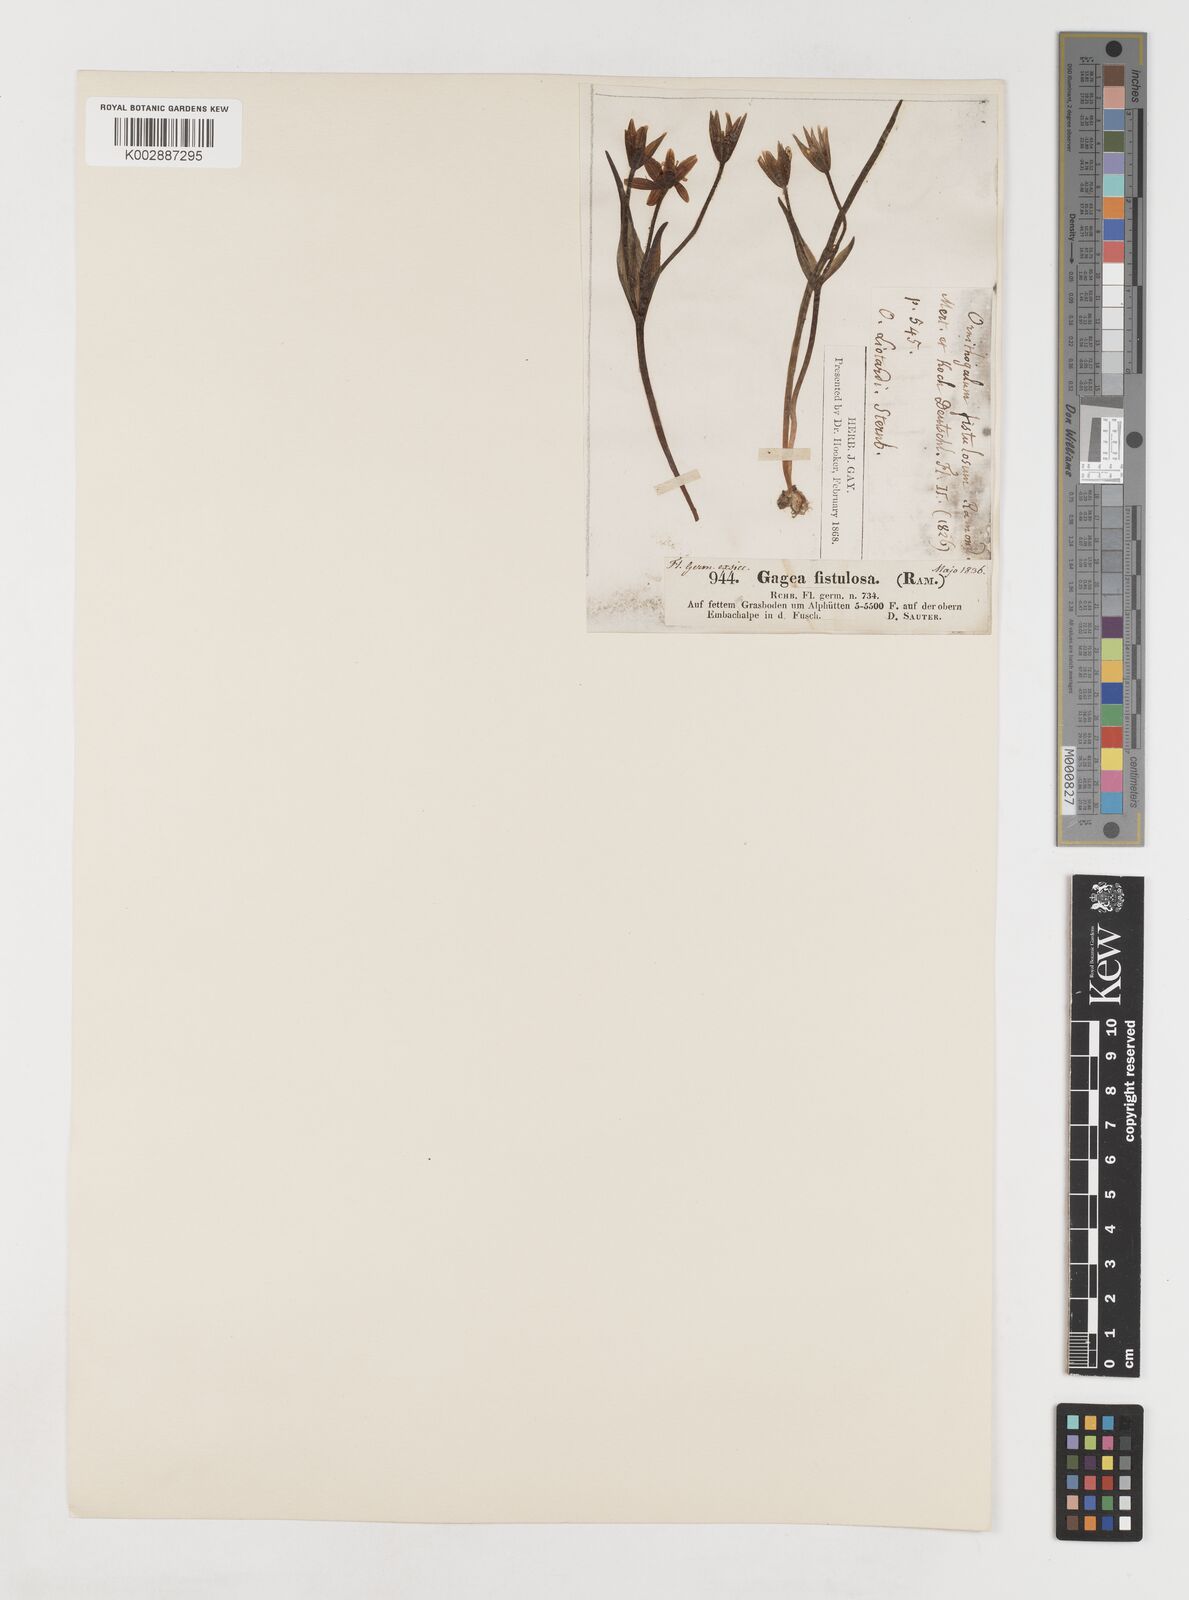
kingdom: Plantae
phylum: Tracheophyta
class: Liliopsida
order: Liliales
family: Liliaceae
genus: Gagea
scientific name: Gagea bohemica
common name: Early star-of-bethlehem
